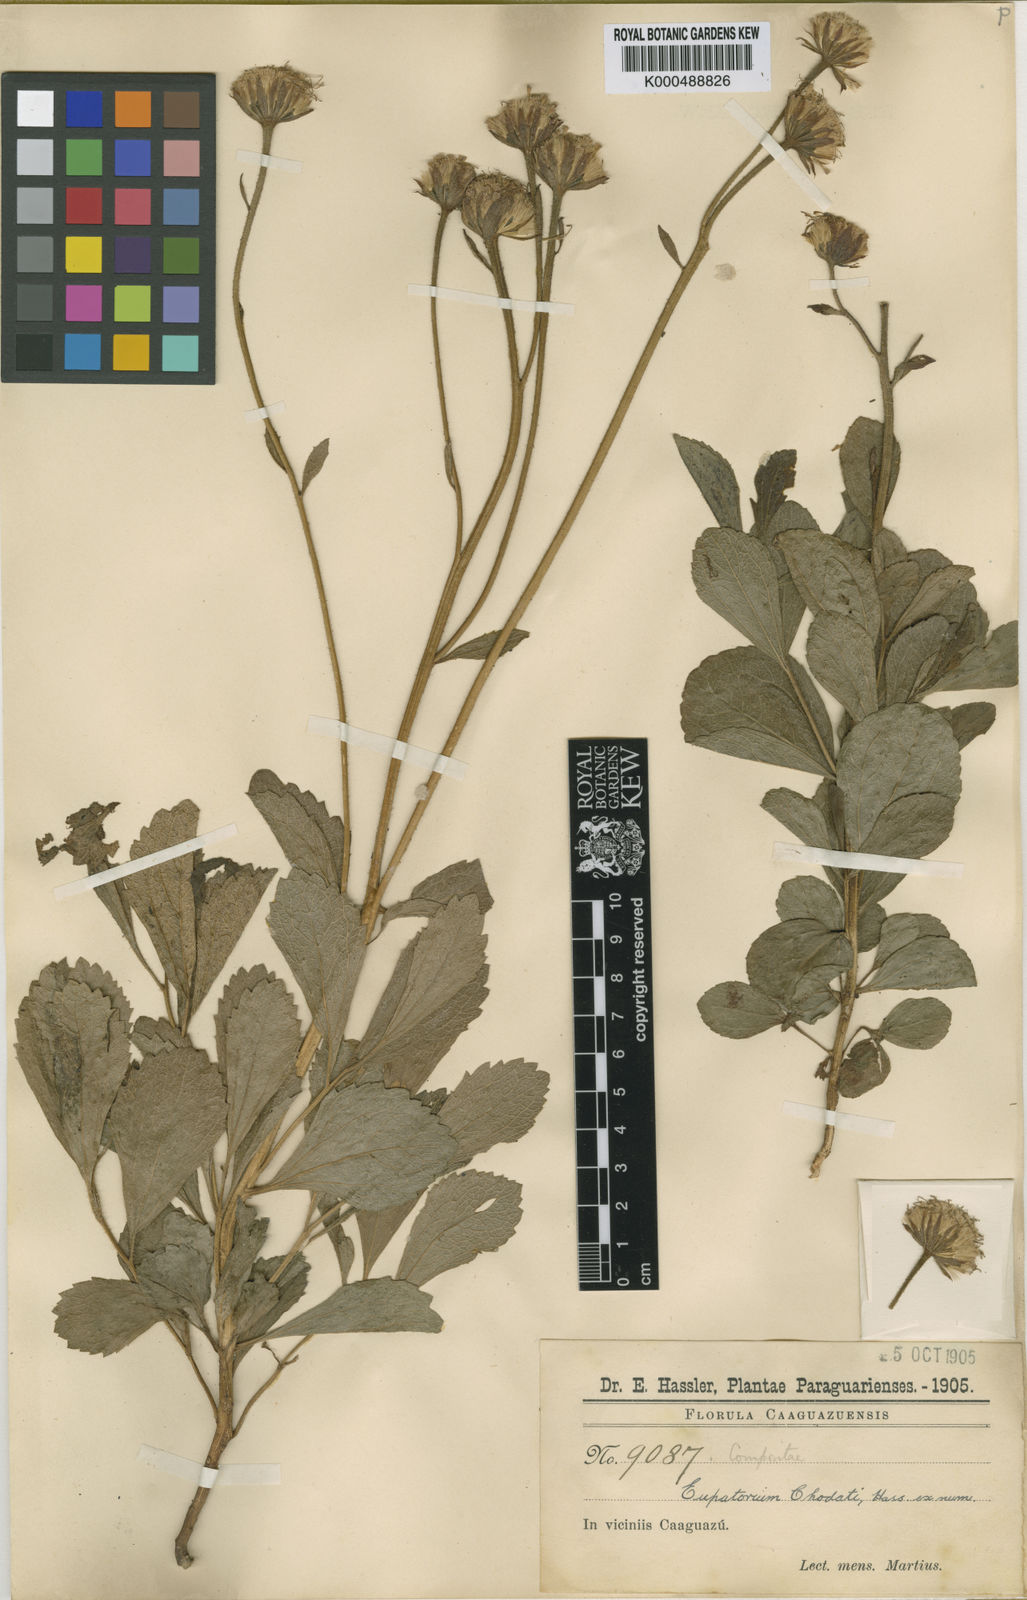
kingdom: Plantae
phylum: Tracheophyta
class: Magnoliopsida
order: Asterales
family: Asteraceae
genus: Trichogonia
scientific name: Trichogonia chodatii
